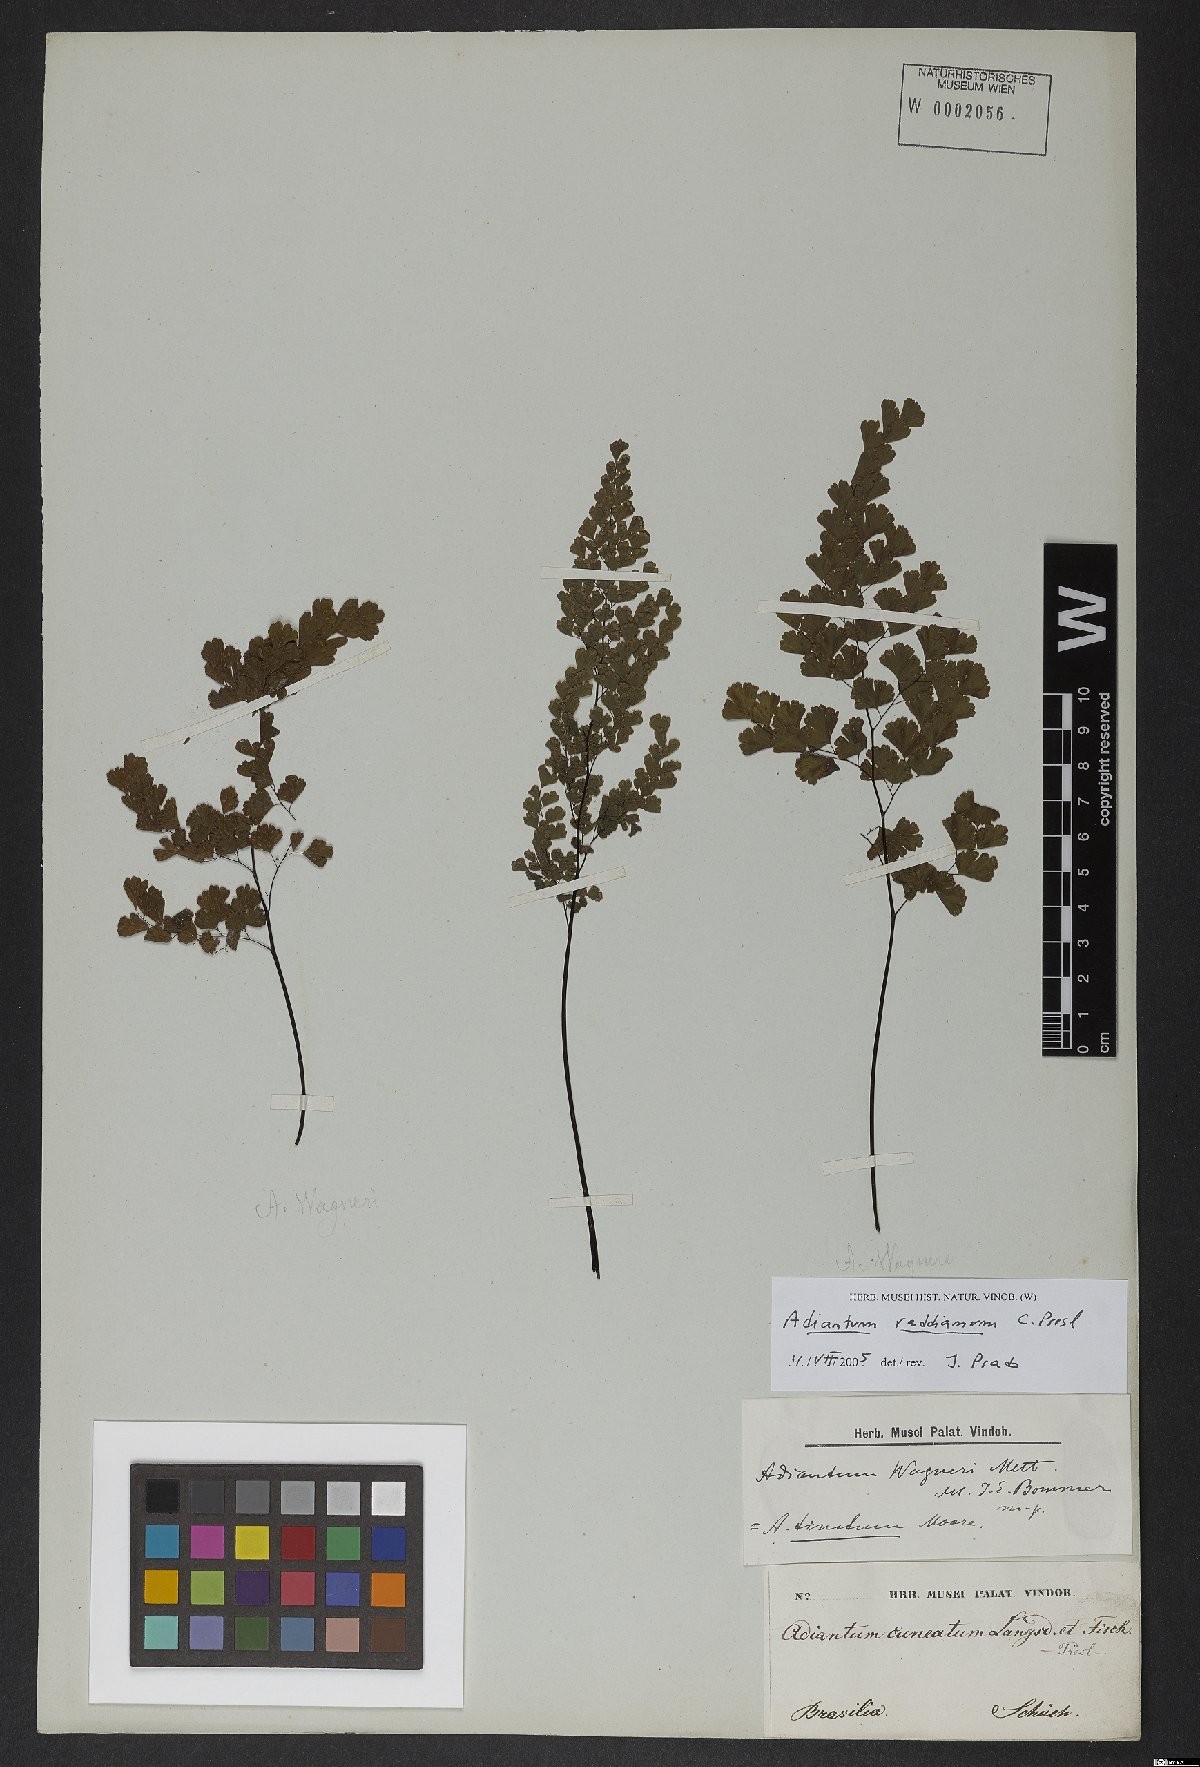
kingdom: Plantae
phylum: Tracheophyta
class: Polypodiopsida
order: Polypodiales
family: Pteridaceae
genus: Adiantum
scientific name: Adiantum raddianum
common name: Delta maidenhair fern
